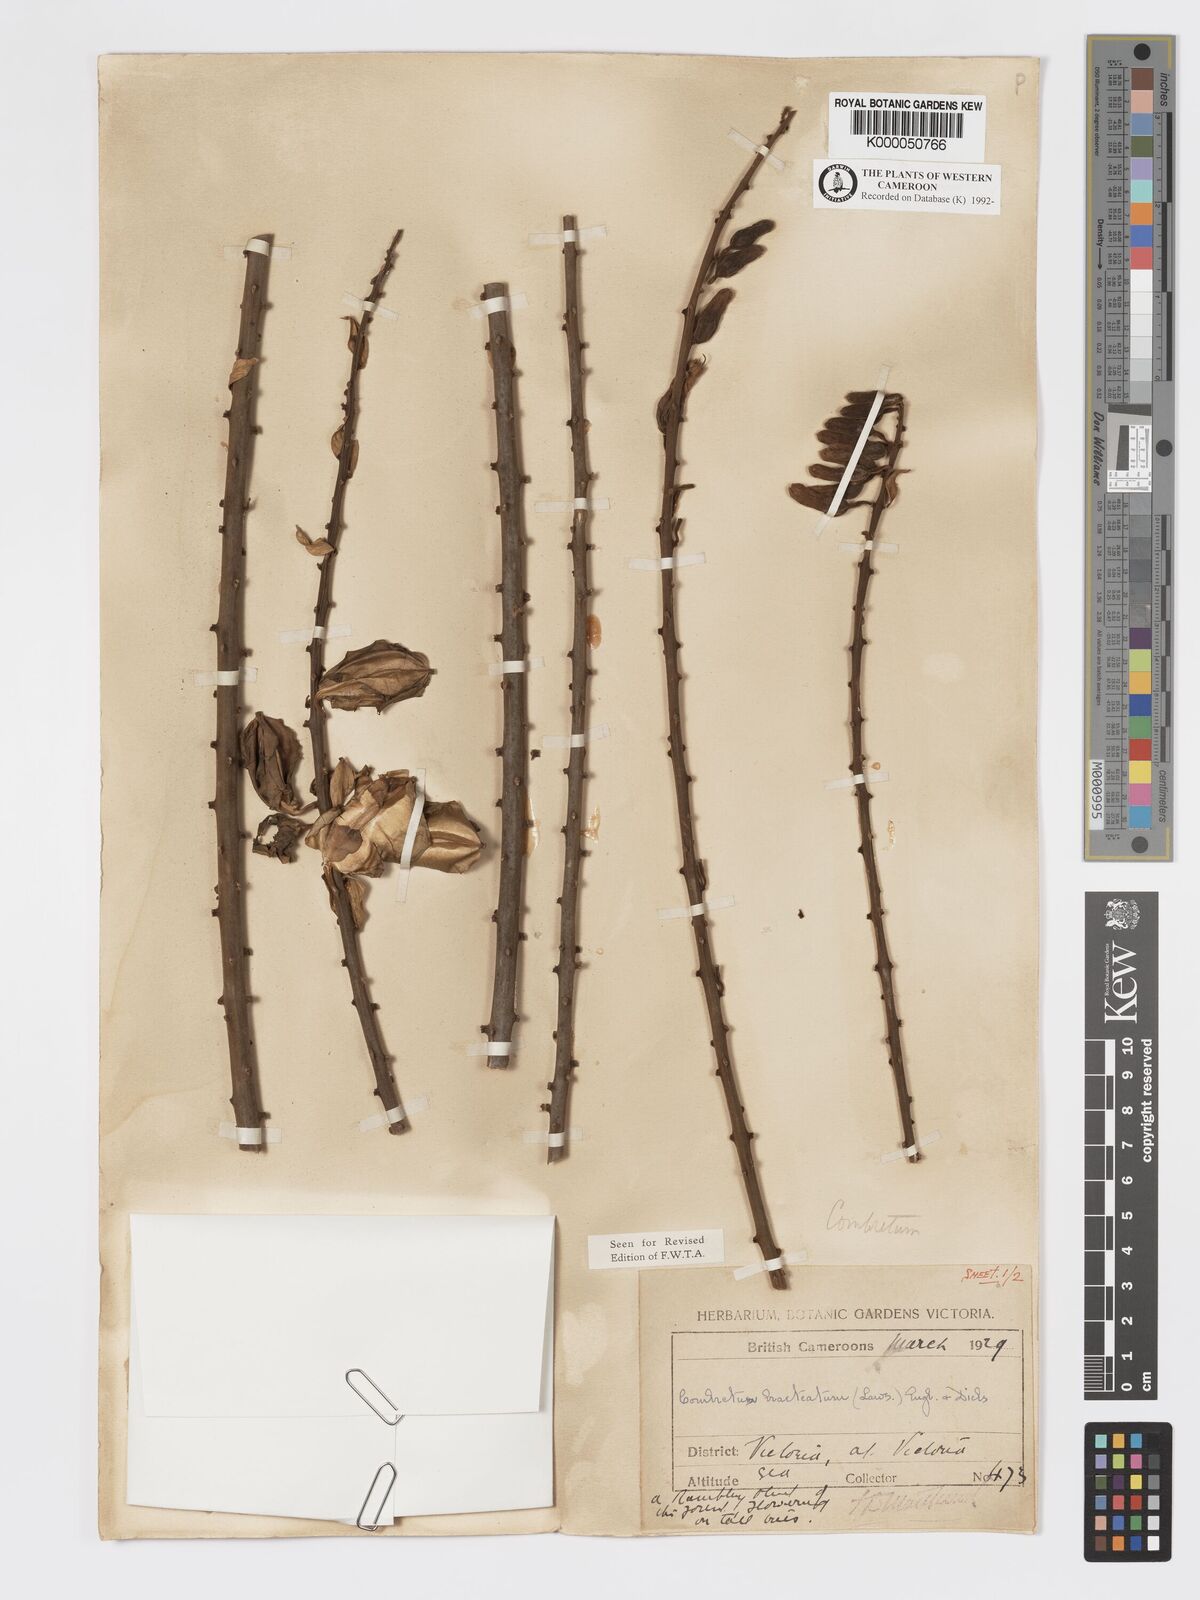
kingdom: Plantae
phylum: Tracheophyta
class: Magnoliopsida
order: Myrtales
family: Combretaceae
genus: Combretum
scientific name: Combretum bracteatum
